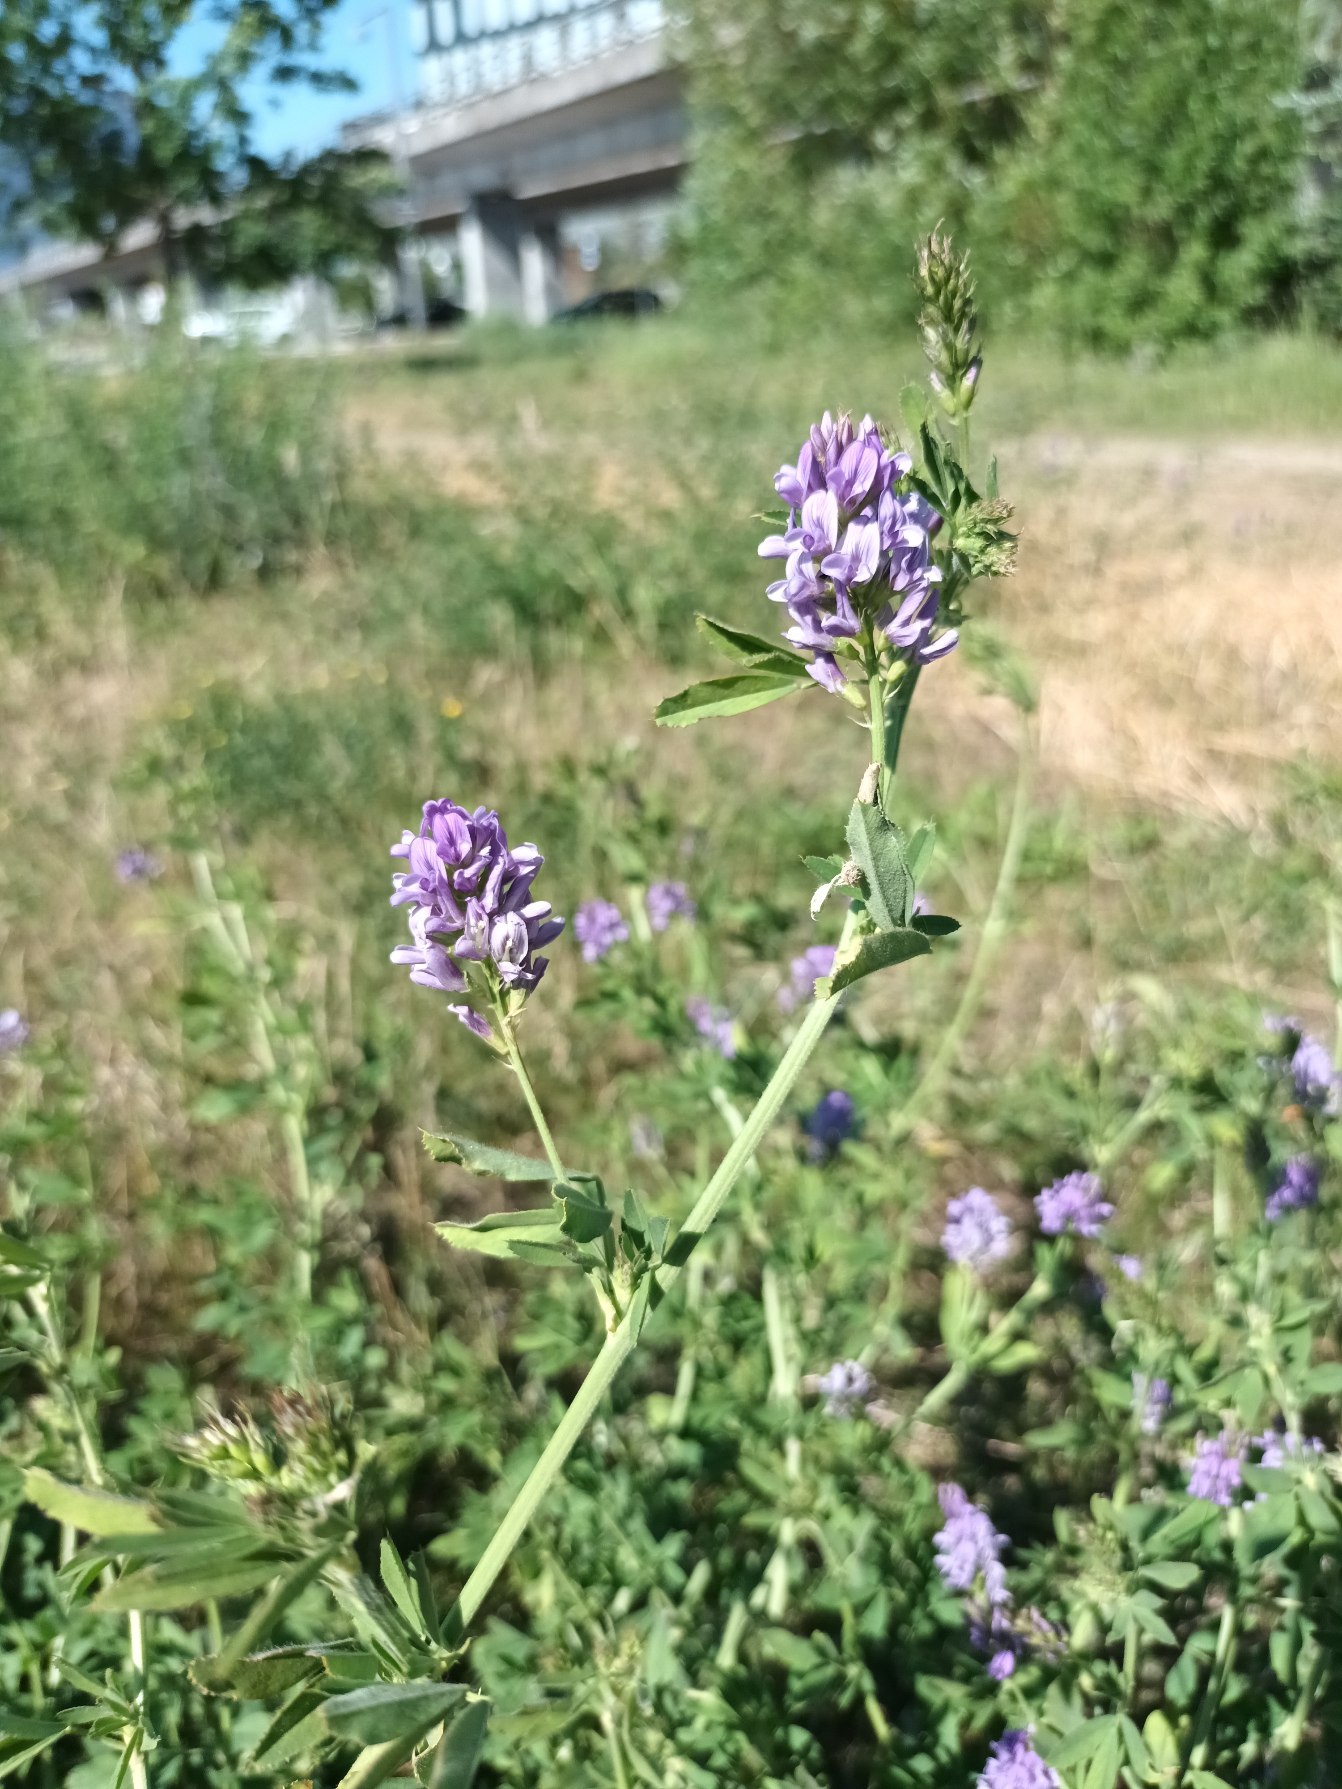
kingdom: Plantae
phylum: Tracheophyta
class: Magnoliopsida
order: Fabales
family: Fabaceae
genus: Medicago
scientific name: Medicago sativa
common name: Lucerne
